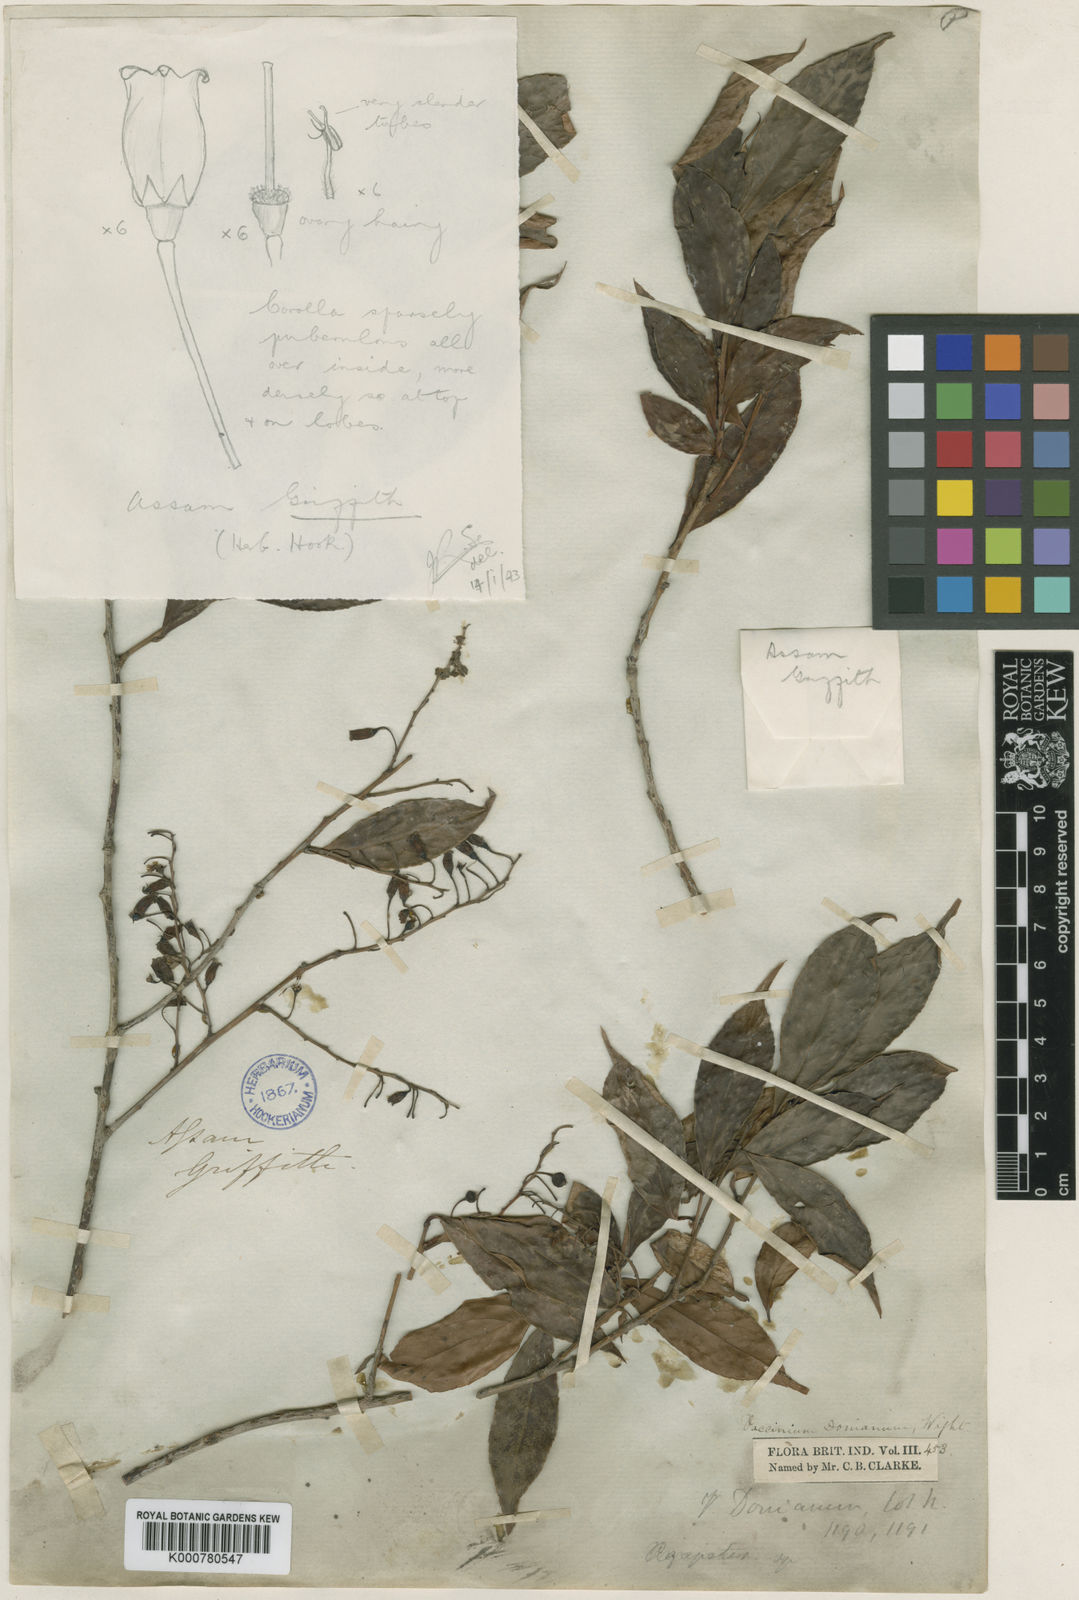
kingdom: Plantae
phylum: Tracheophyta
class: Magnoliopsida
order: Ericales
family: Ericaceae
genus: Vaccinium
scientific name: Vaccinium
